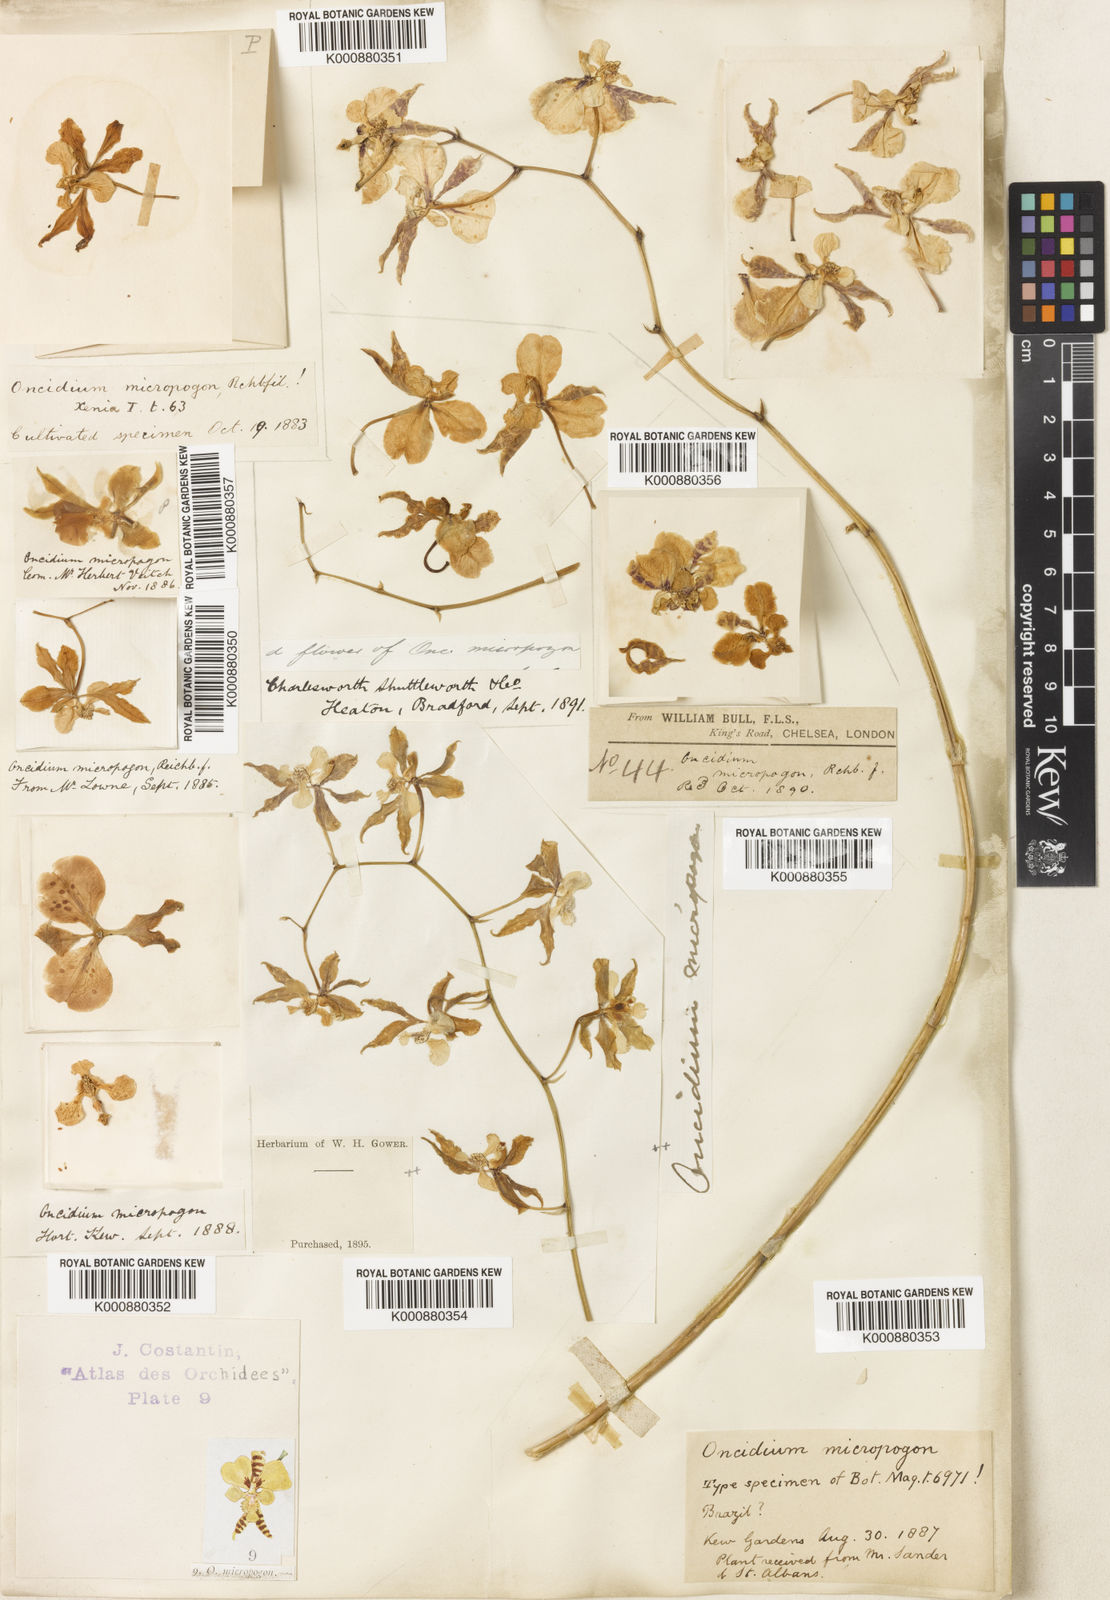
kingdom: Plantae
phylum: Tracheophyta
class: Liliopsida
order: Asparagales
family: Orchidaceae
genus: Gomesa
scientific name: Gomesa ciliata
